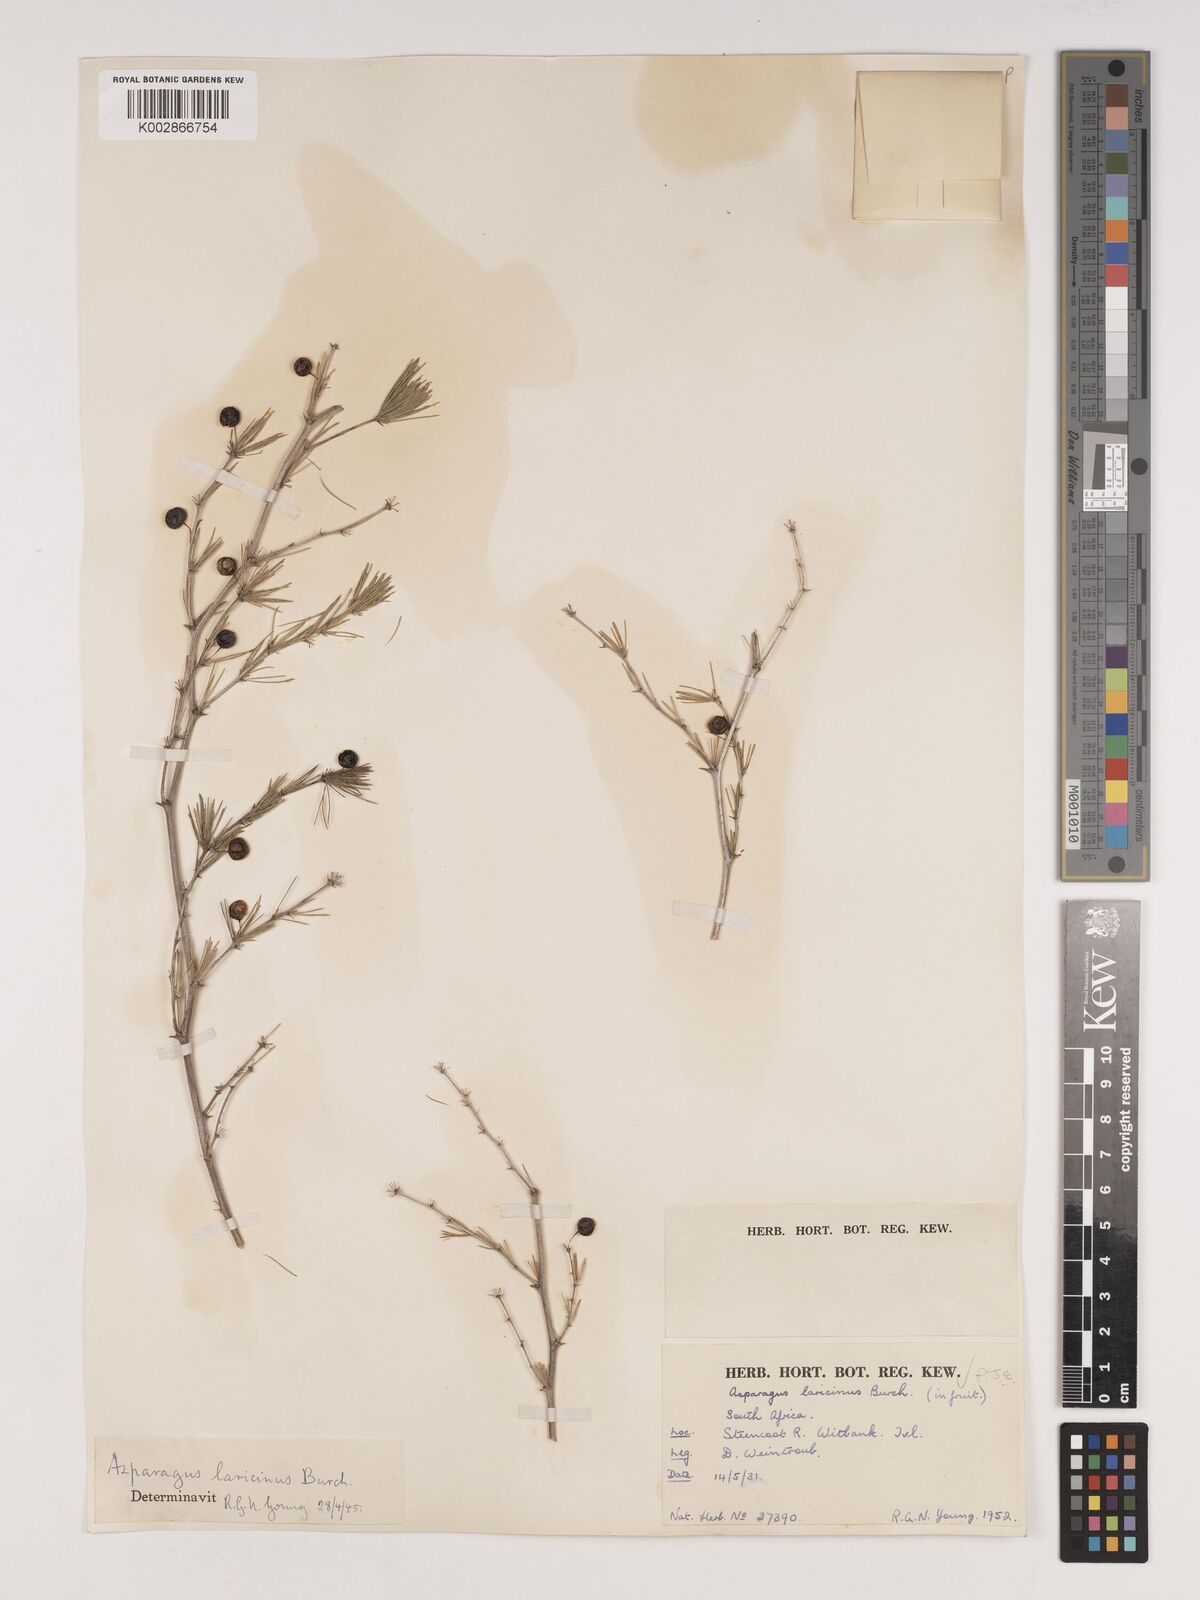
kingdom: Plantae
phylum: Tracheophyta
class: Liliopsida
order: Asparagales
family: Asparagaceae
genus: Asparagus
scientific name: Asparagus laricinus
